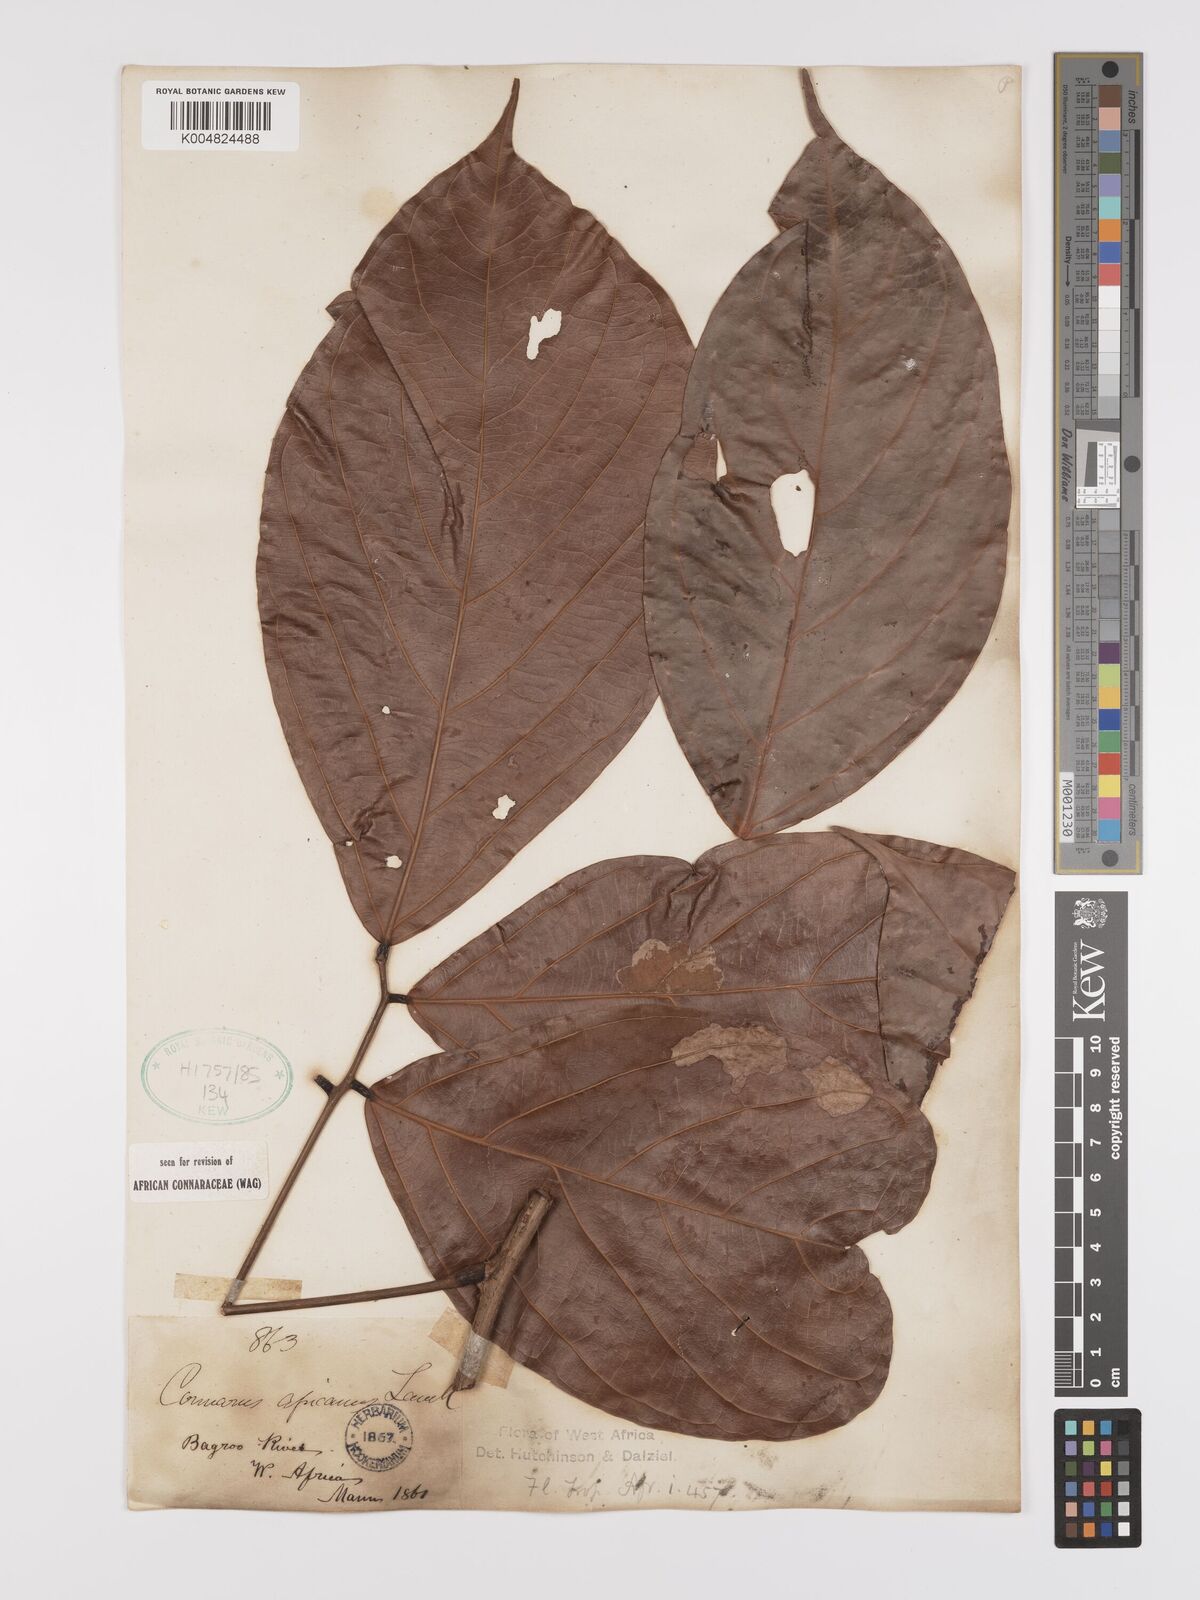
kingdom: Plantae
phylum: Tracheophyta
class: Magnoliopsida
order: Oxalidales
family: Connaraceae
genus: Connarus
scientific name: Connarus africanus
